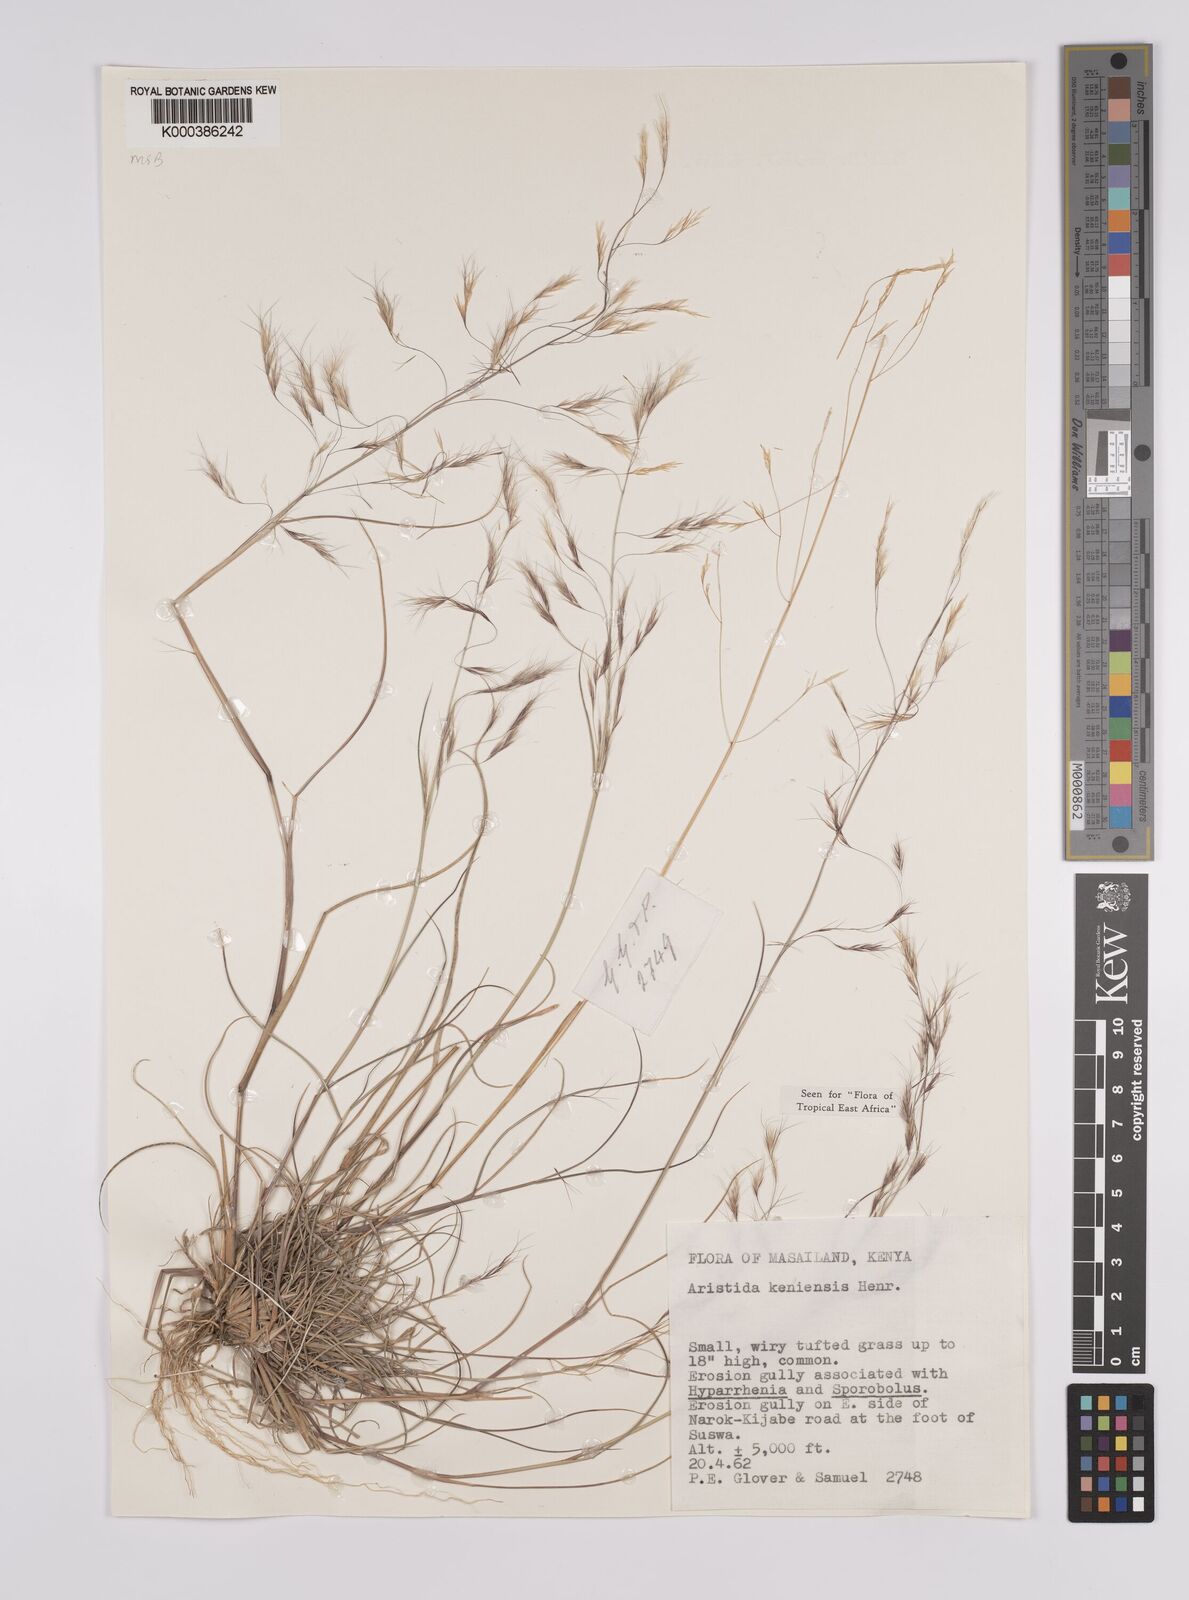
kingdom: Plantae
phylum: Tracheophyta
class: Liliopsida
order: Poales
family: Poaceae
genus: Aristida
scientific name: Aristida kenyensis
